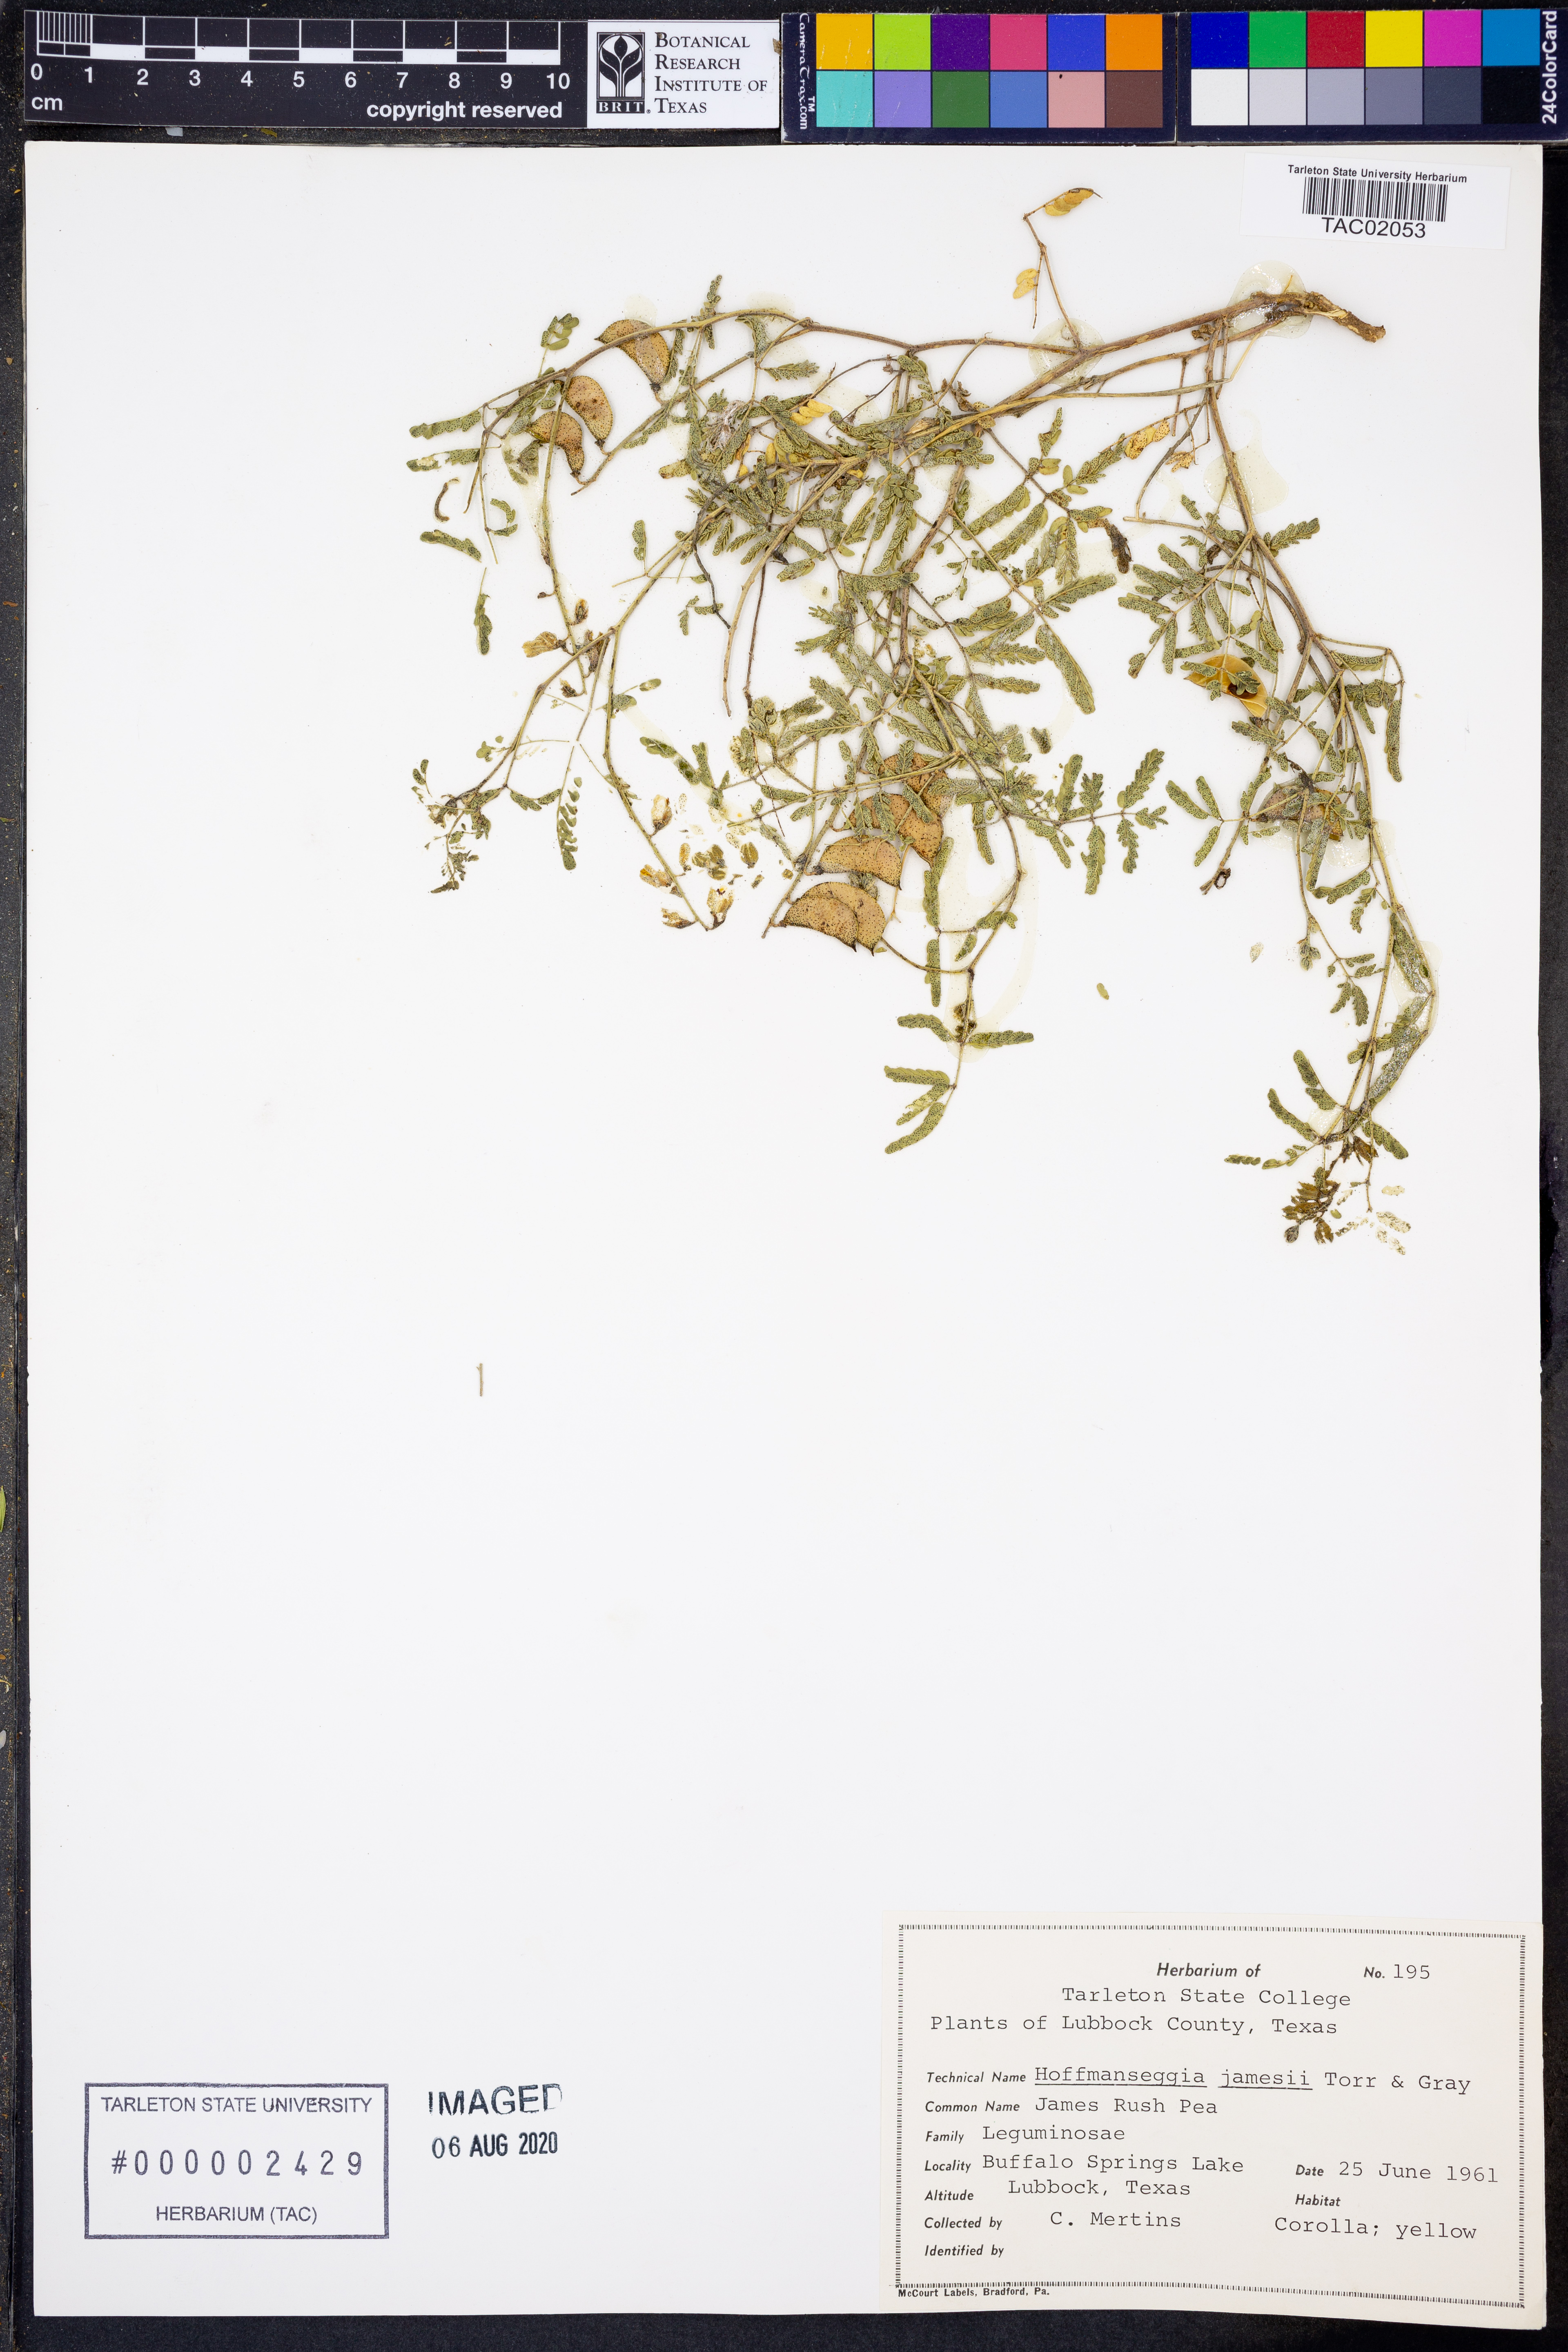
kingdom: Plantae
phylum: Tracheophyta
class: Magnoliopsida
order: Fabales
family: Fabaceae
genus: Pomaria
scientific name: Pomaria jamesii
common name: James' caesalpinia
